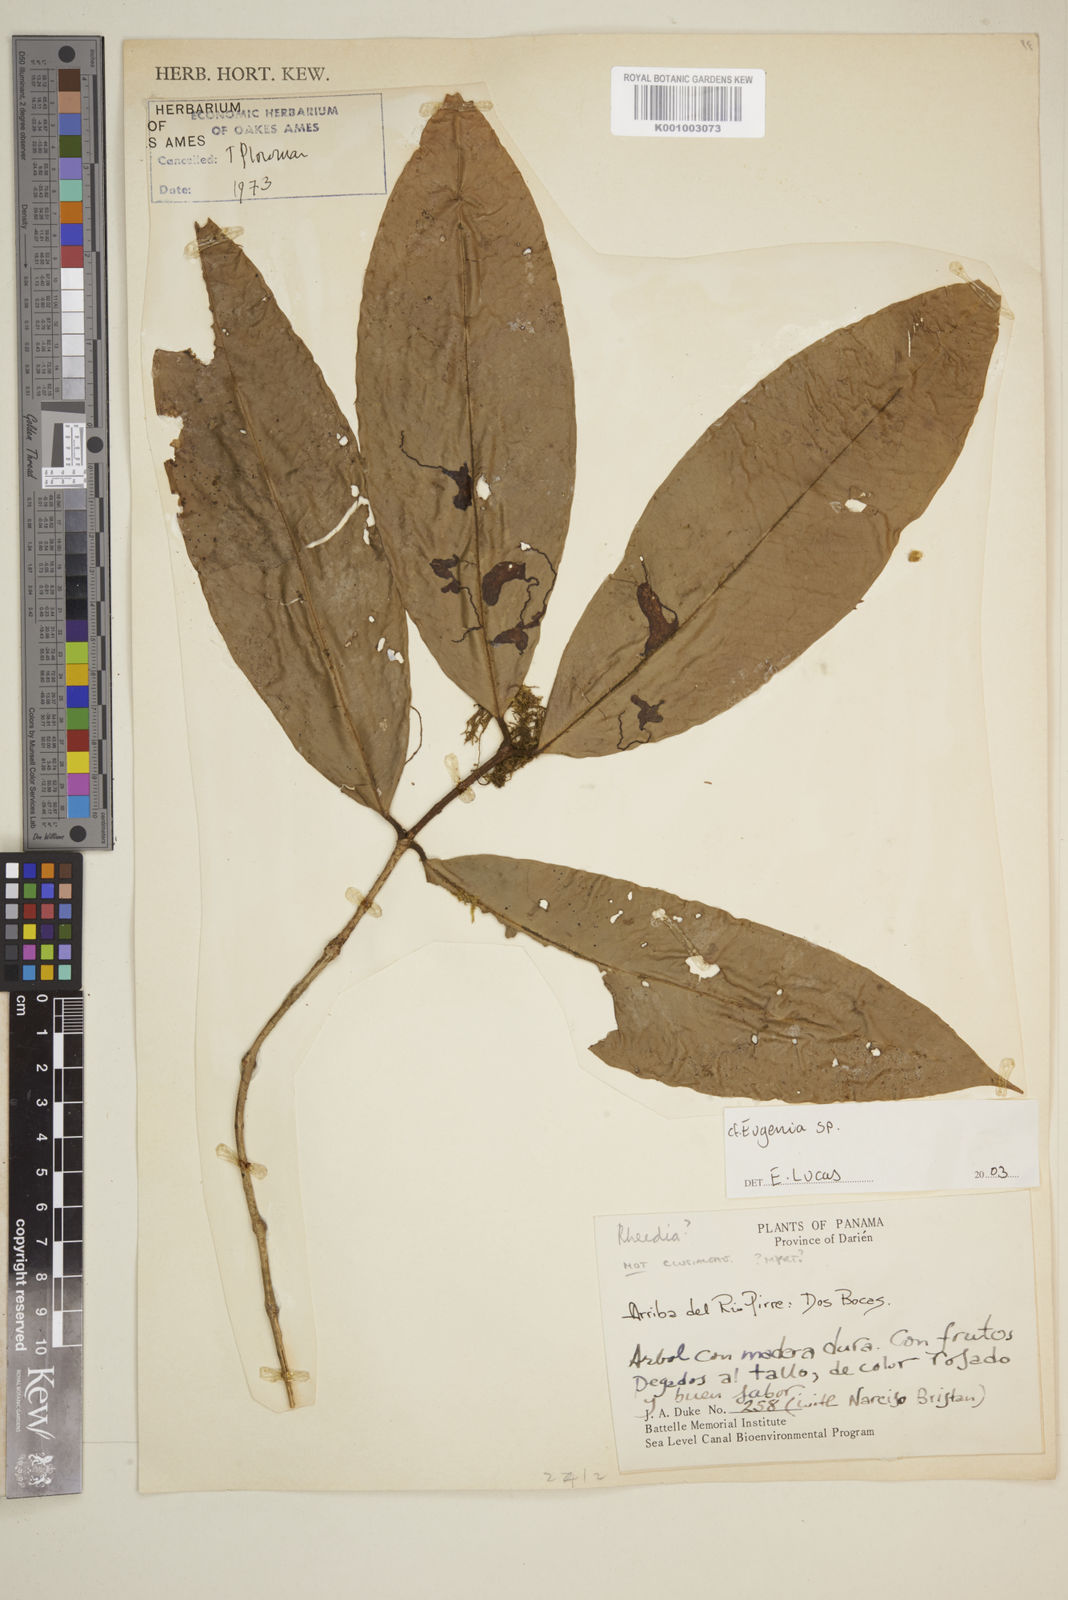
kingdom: Plantae
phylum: Tracheophyta
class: Magnoliopsida
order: Myrtales
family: Myrtaceae
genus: Eugenia
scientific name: Eugenia
